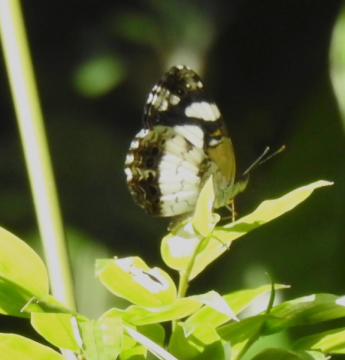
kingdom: Animalia
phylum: Arthropoda
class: Insecta
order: Lepidoptera
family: Nymphalidae
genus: Janatella
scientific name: Janatella leucodesma
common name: Whitened Crescent
